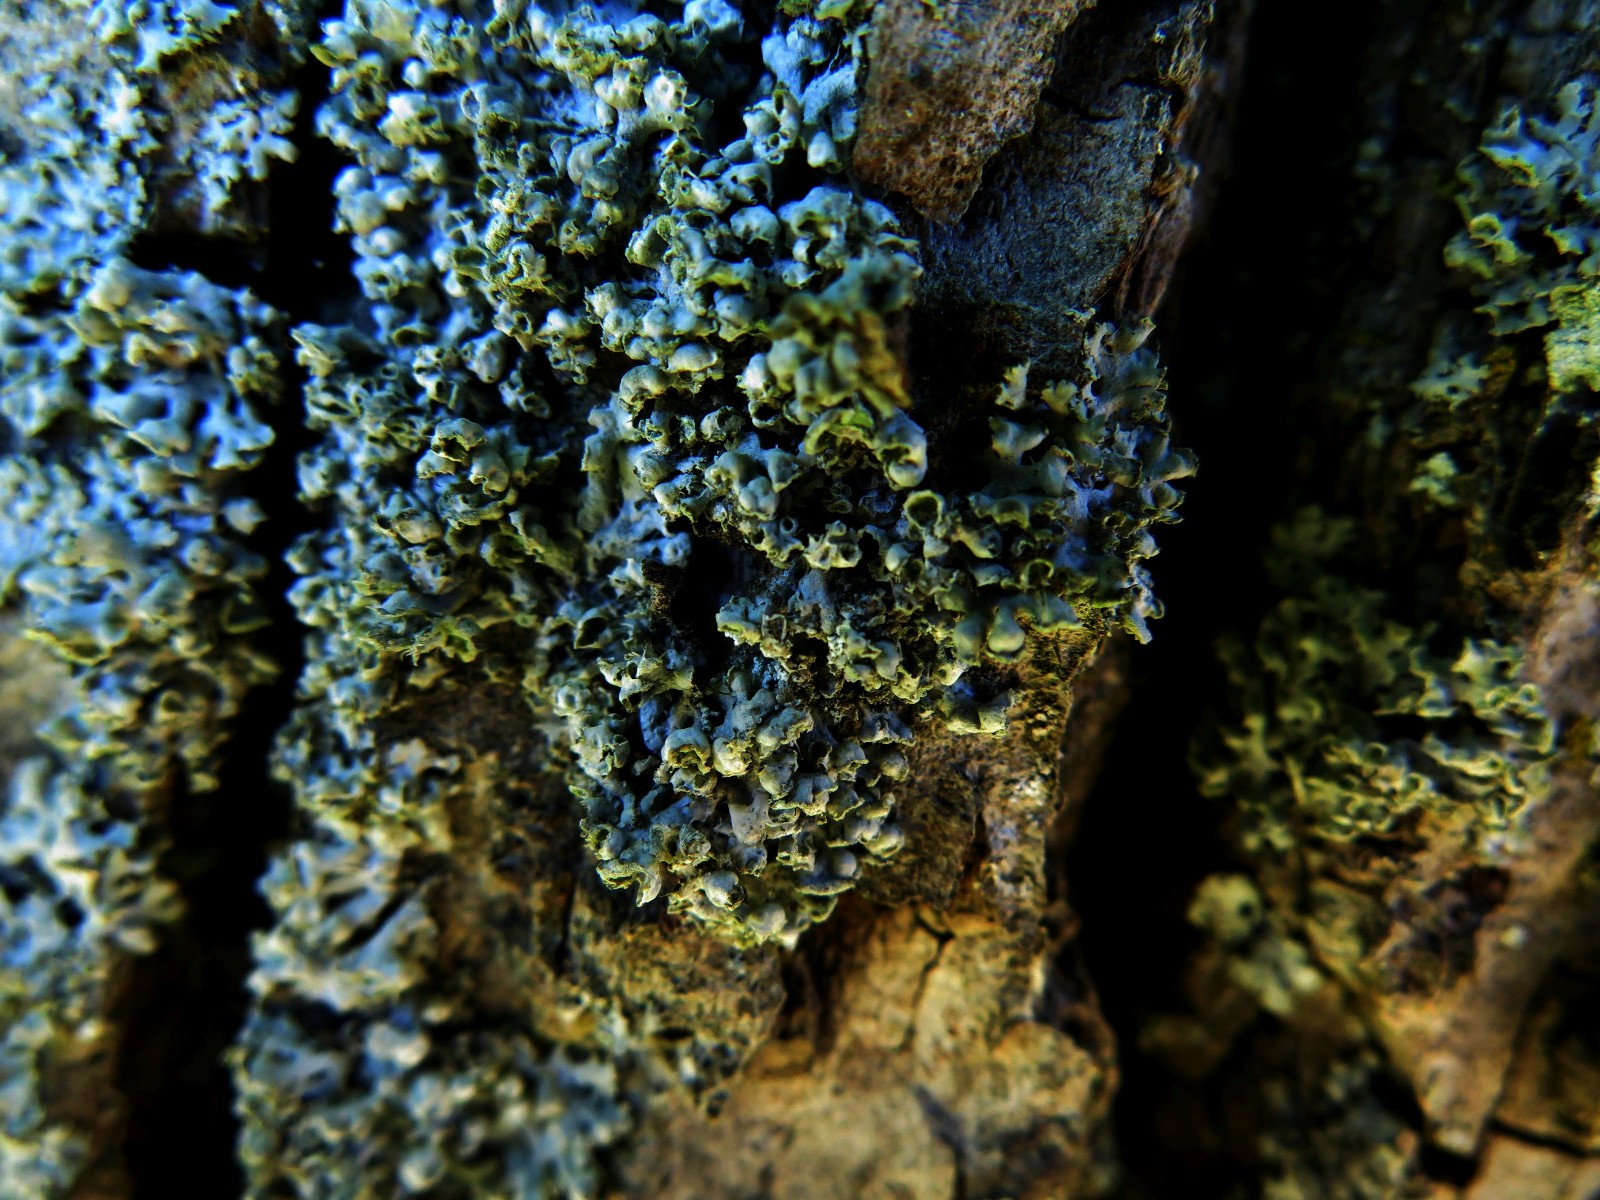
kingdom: Fungi
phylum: Ascomycota
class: Lecanoromycetes
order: Caliciales
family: Physciaceae
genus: Physcia
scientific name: Physcia adscendens
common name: hætte-rosetlav
